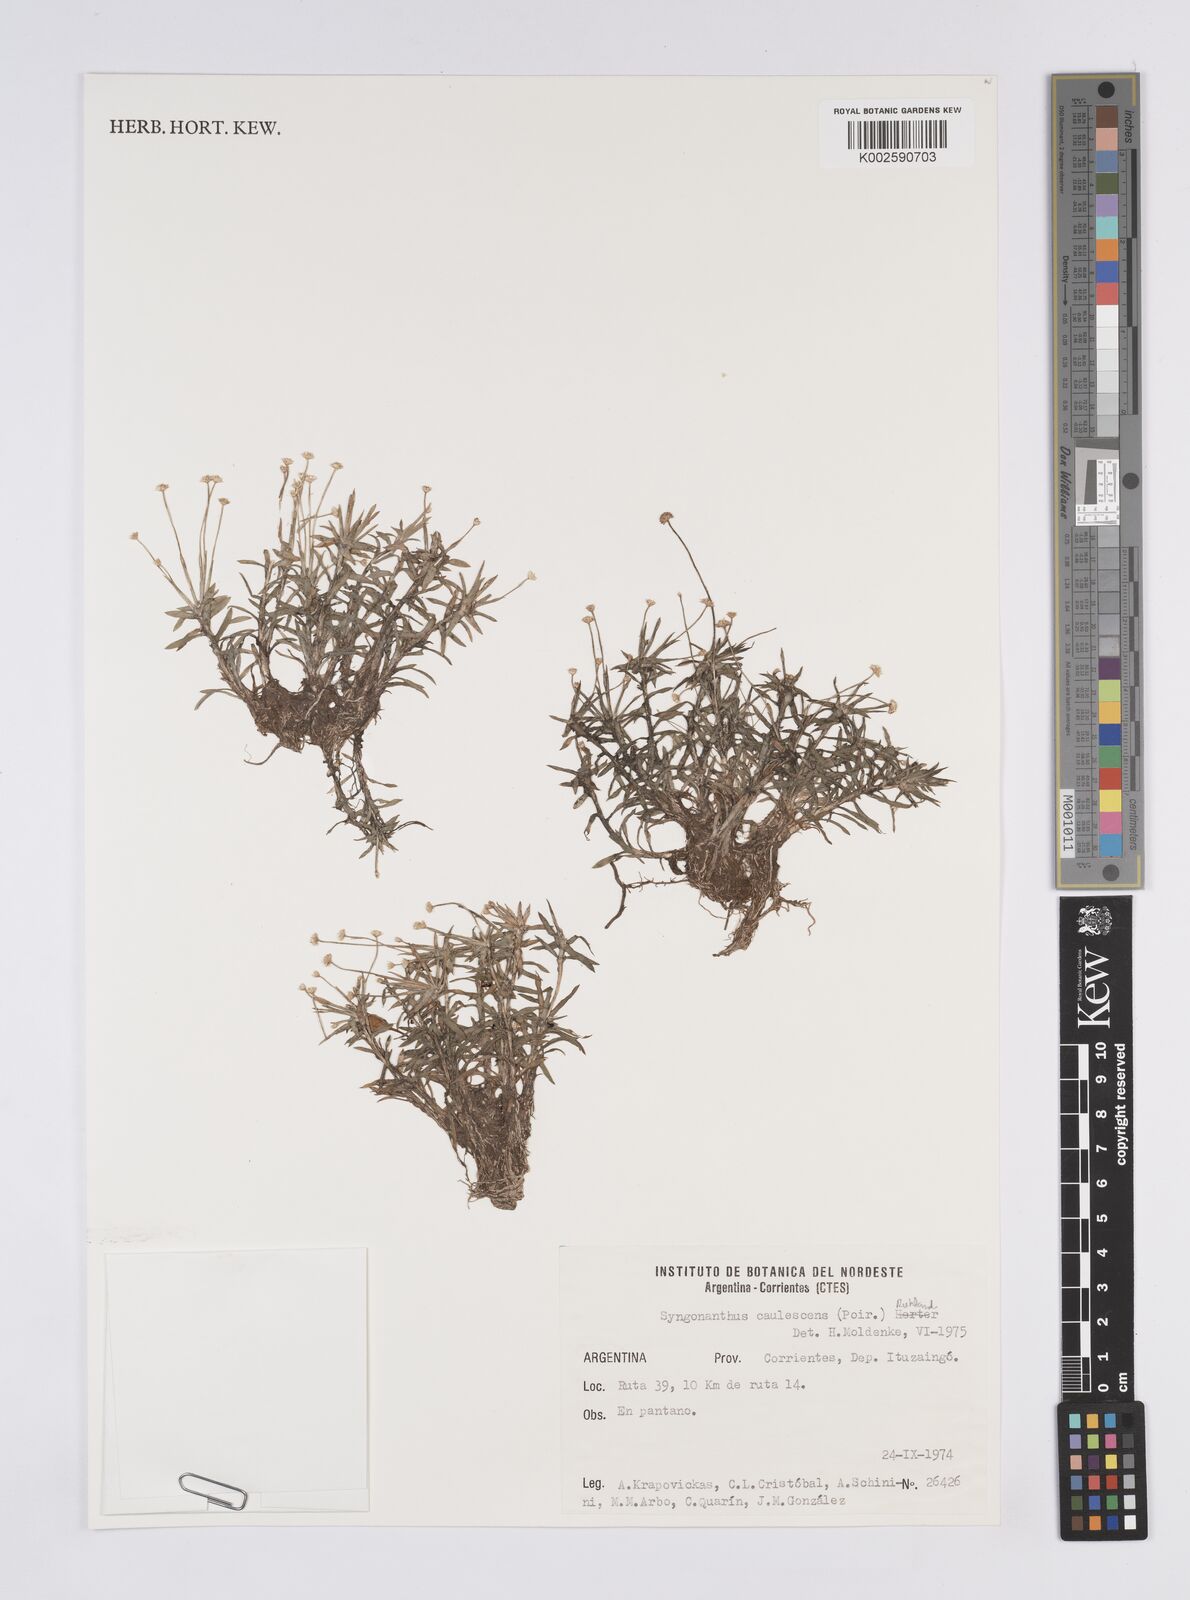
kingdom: Plantae
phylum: Tracheophyta
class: Liliopsida
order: Poales
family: Eriocaulaceae
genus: Syngonanthus
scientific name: Syngonanthus caulescens
